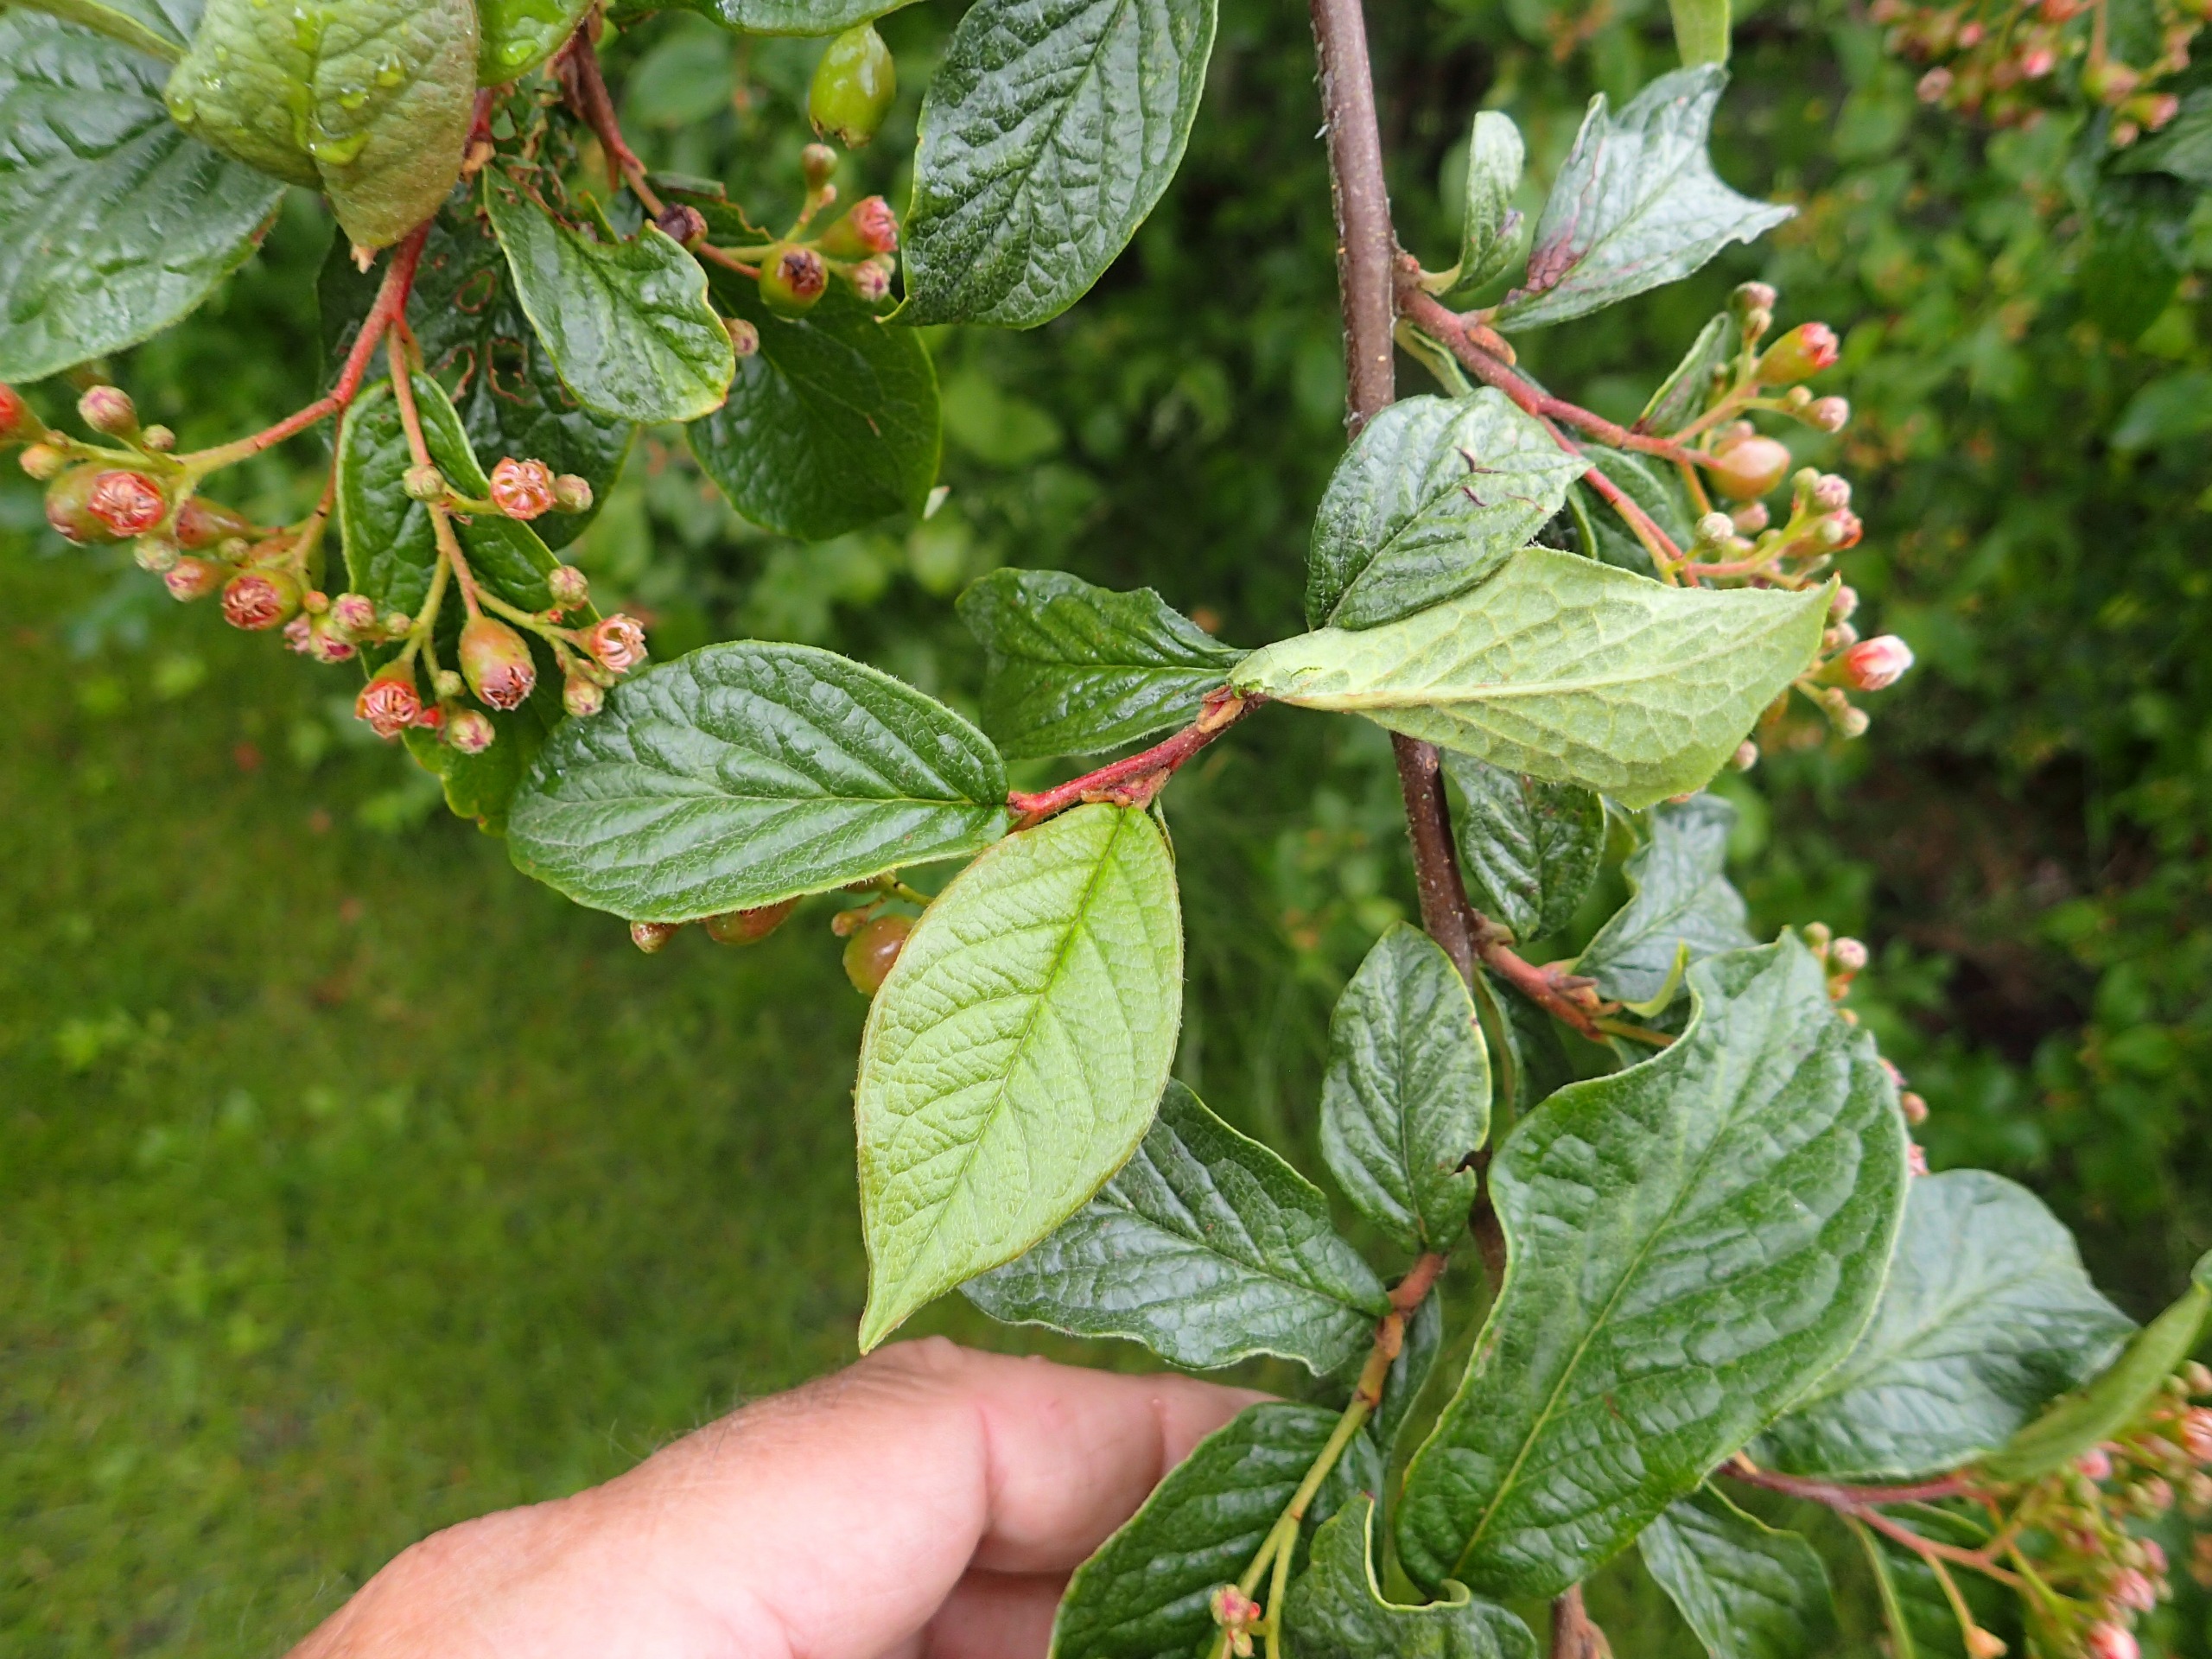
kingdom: Plantae
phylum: Tracheophyta
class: Magnoliopsida
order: Rosales
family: Rosaceae
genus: Cotoneaster
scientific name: Cotoneaster bullatus
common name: Storbladet dværgmispel
